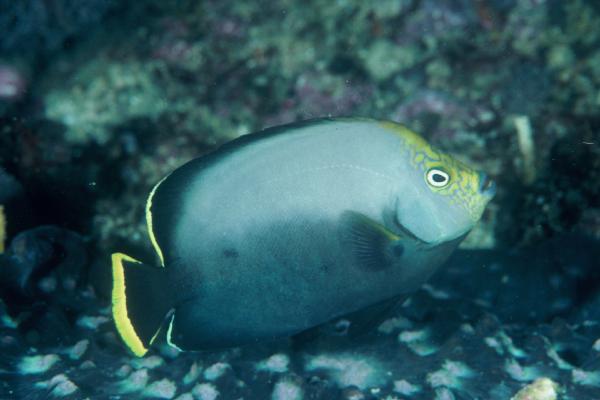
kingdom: Animalia
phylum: Chordata
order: Perciformes
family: Pomacanthidae
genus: Chaetodontoplus
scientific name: Chaetodontoplus melanosoma
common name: Black velvet angelfish
